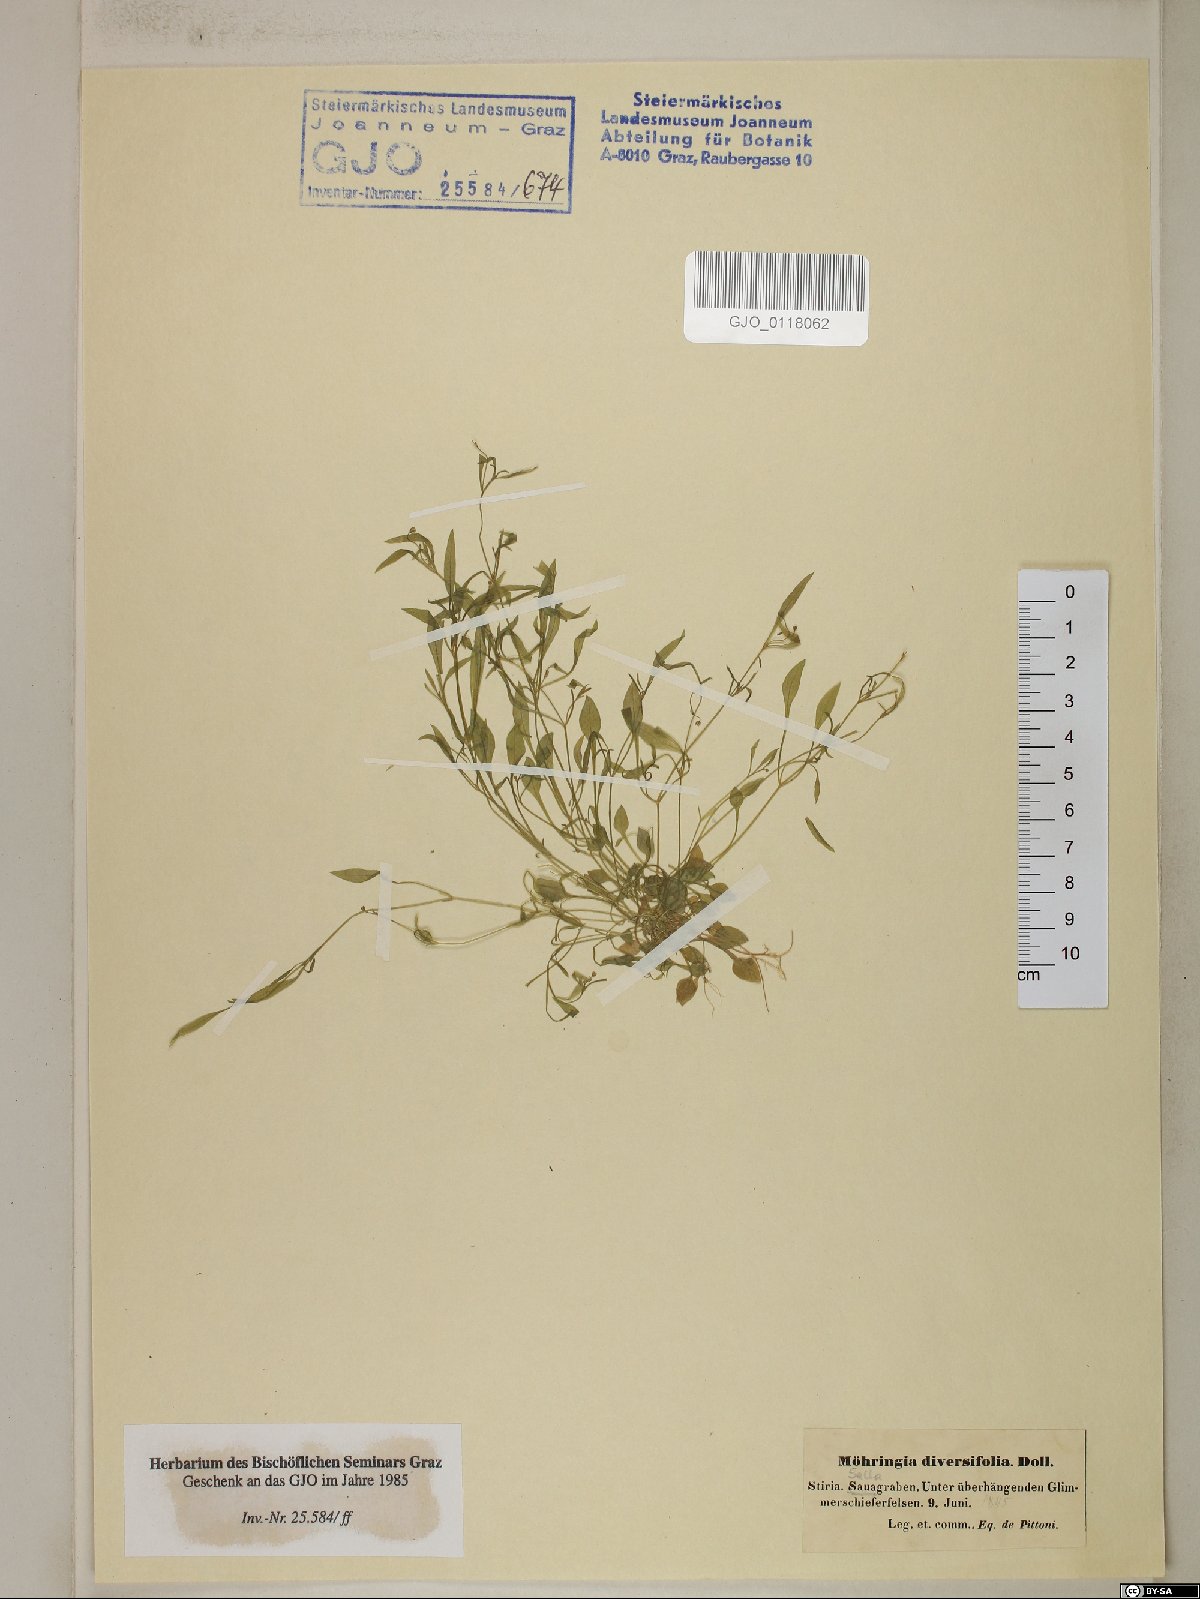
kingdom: Plantae
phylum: Tracheophyta
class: Magnoliopsida
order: Caryophyllales
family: Caryophyllaceae
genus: Moehringia
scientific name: Moehringia diversifolia
